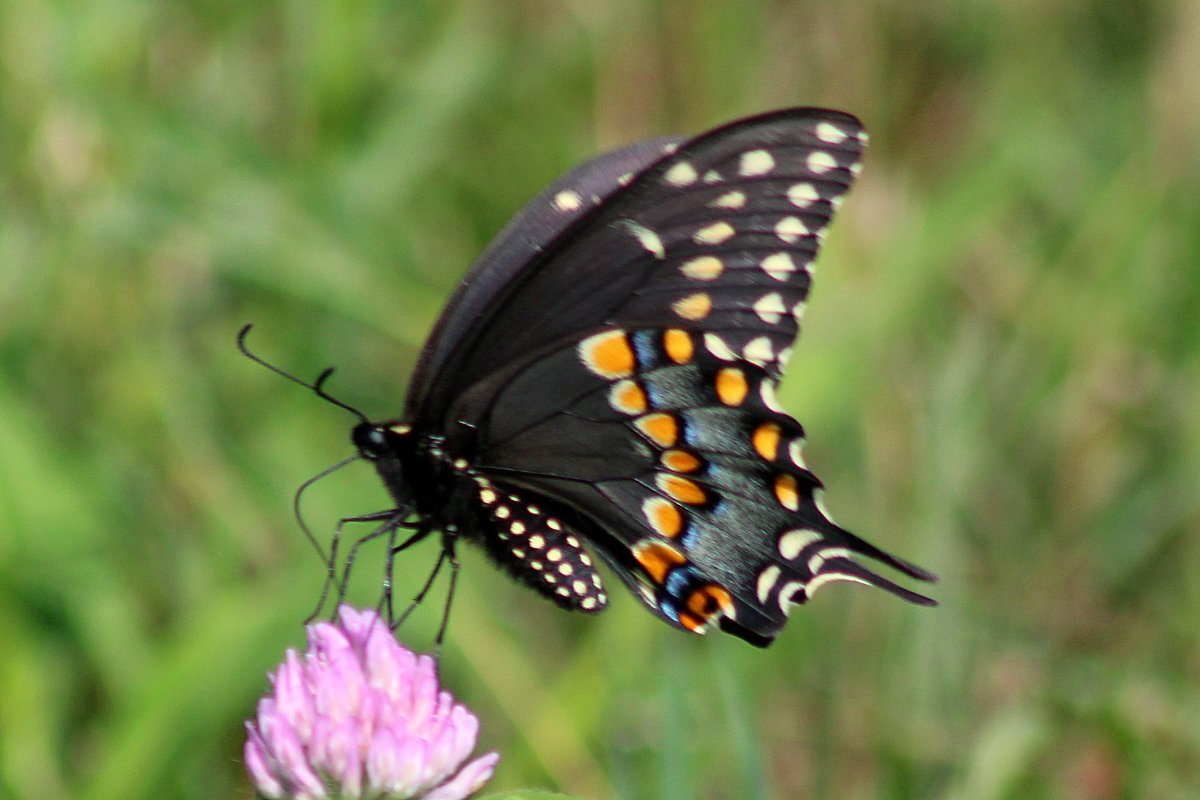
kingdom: Animalia
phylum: Arthropoda
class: Insecta
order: Lepidoptera
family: Papilionidae
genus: Papilio
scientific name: Papilio polyxenes
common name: Black Swallowtail
